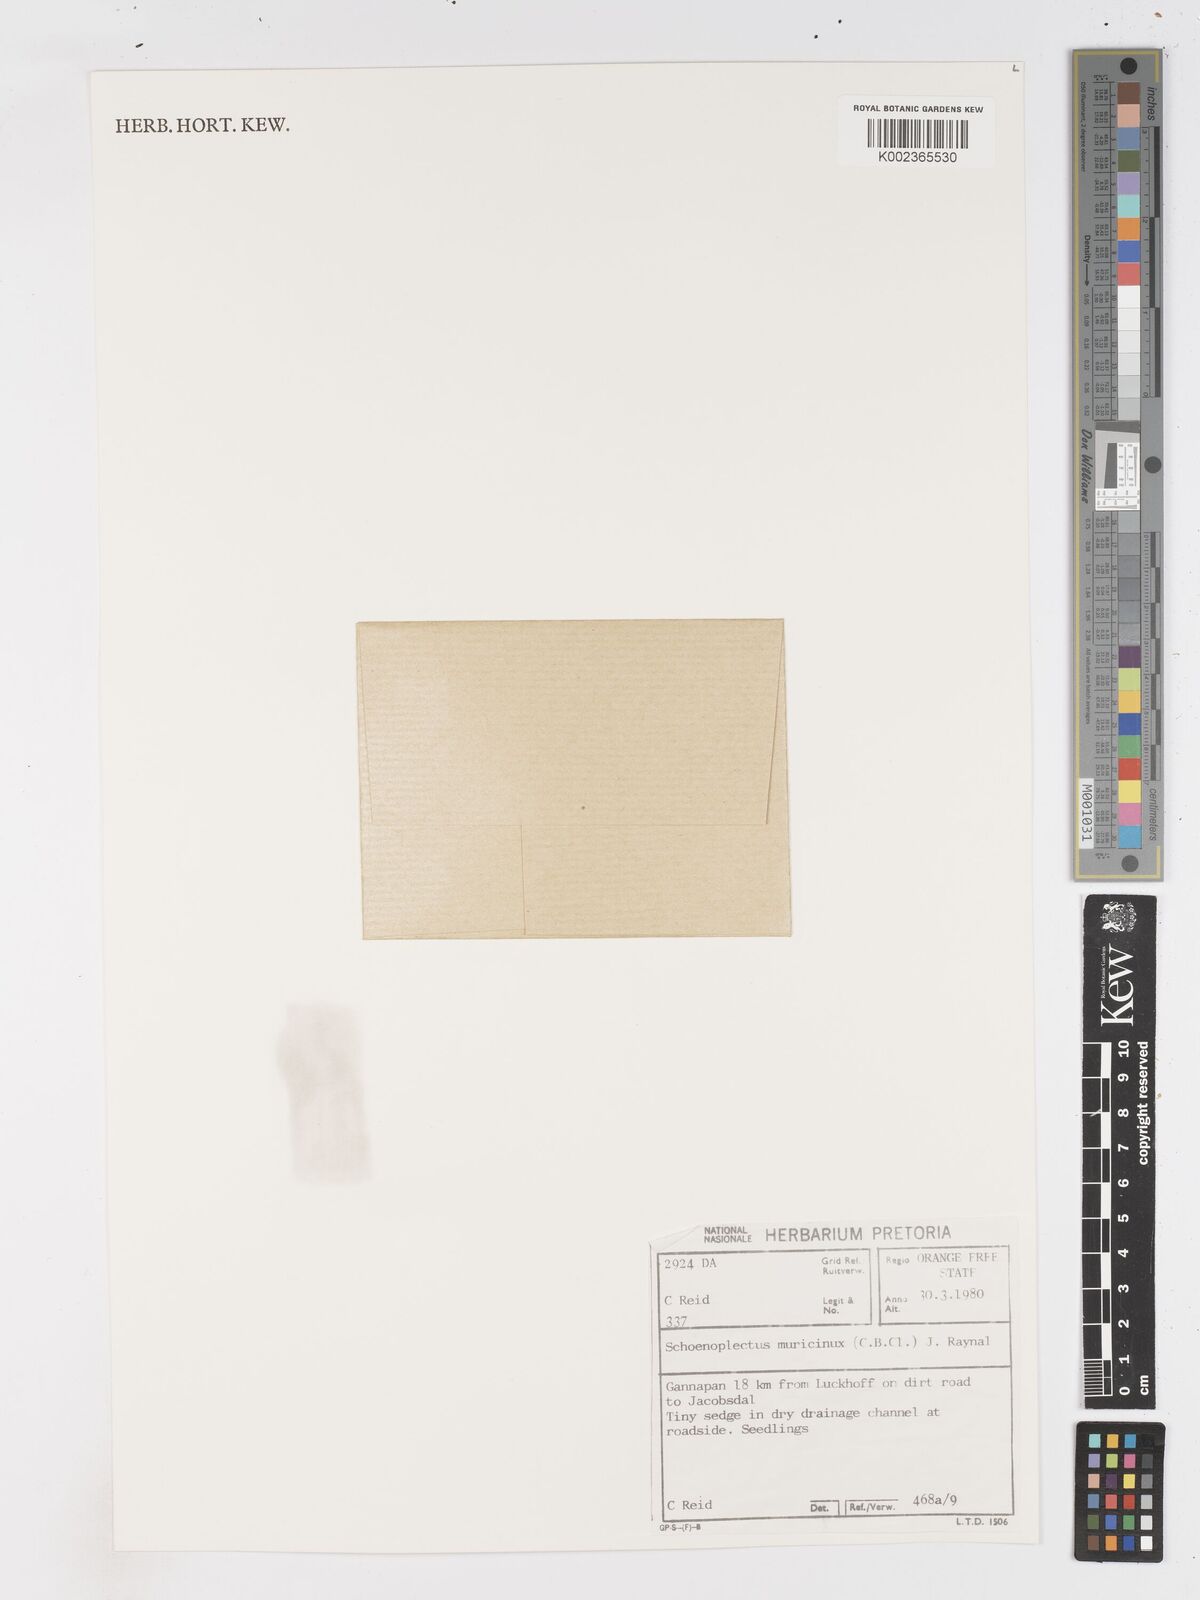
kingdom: Plantae
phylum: Tracheophyta
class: Liliopsida
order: Poales
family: Cyperaceae
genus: Schoenoplectiella
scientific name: Schoenoplectiella muricinux
